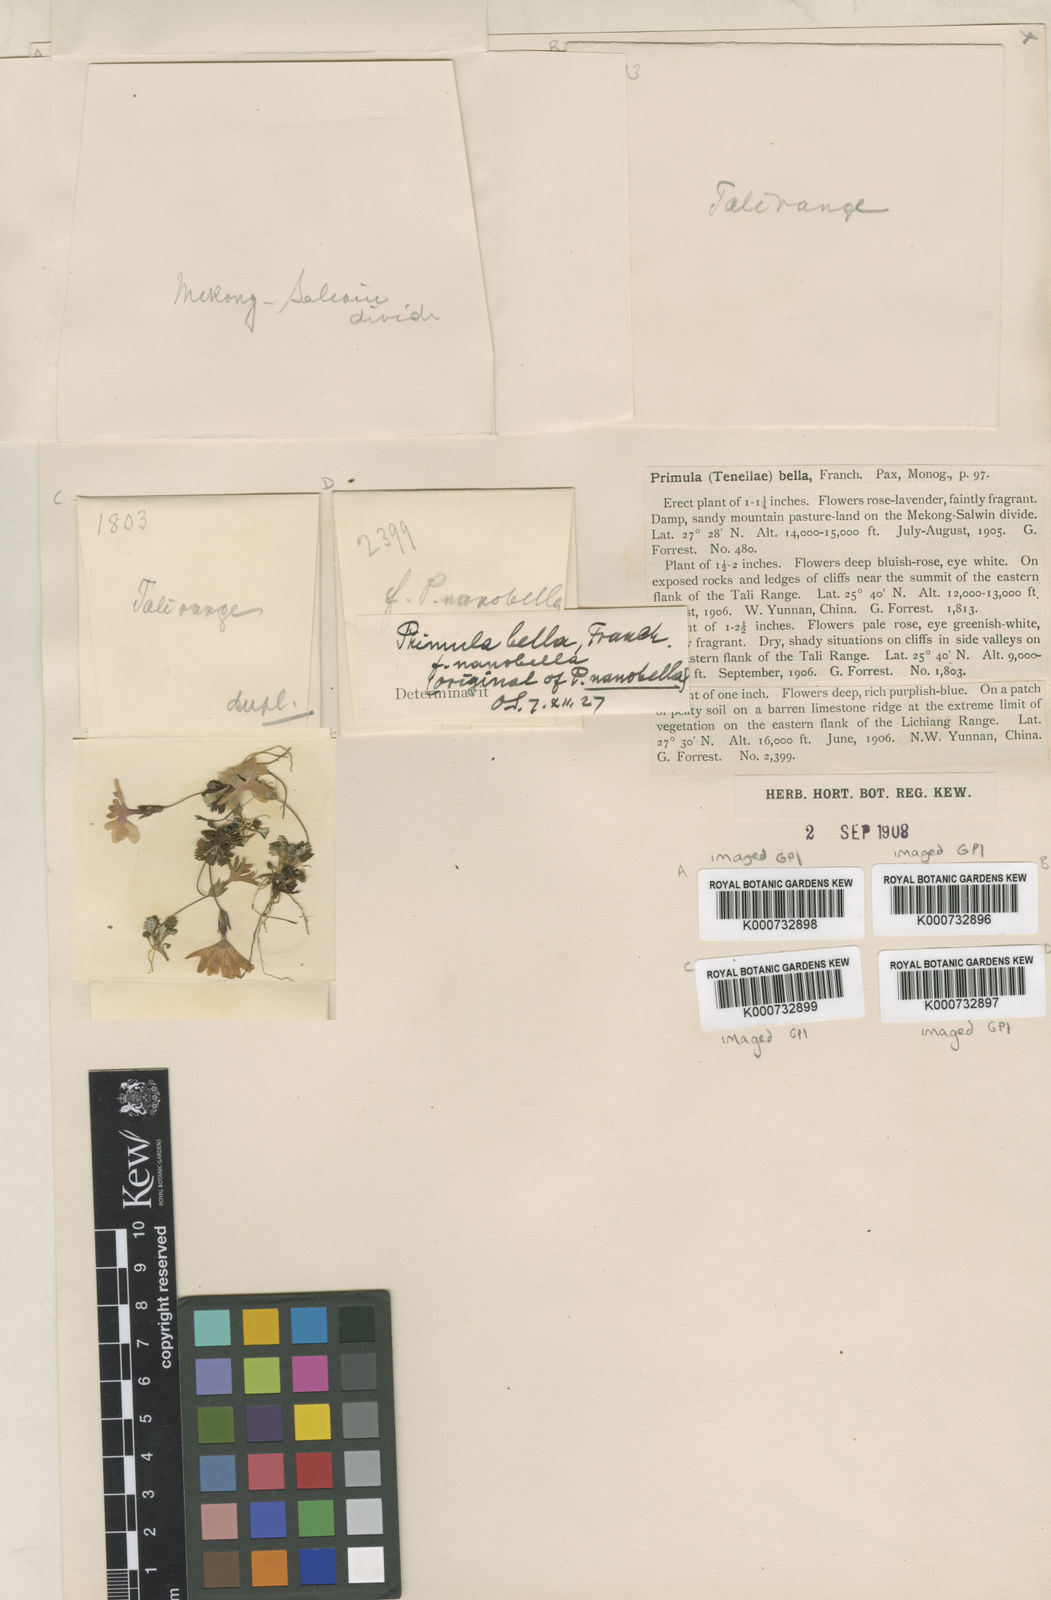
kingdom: Plantae
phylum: Tracheophyta
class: Magnoliopsida
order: Ericales
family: Primulaceae
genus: Primula
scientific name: Primula bella
